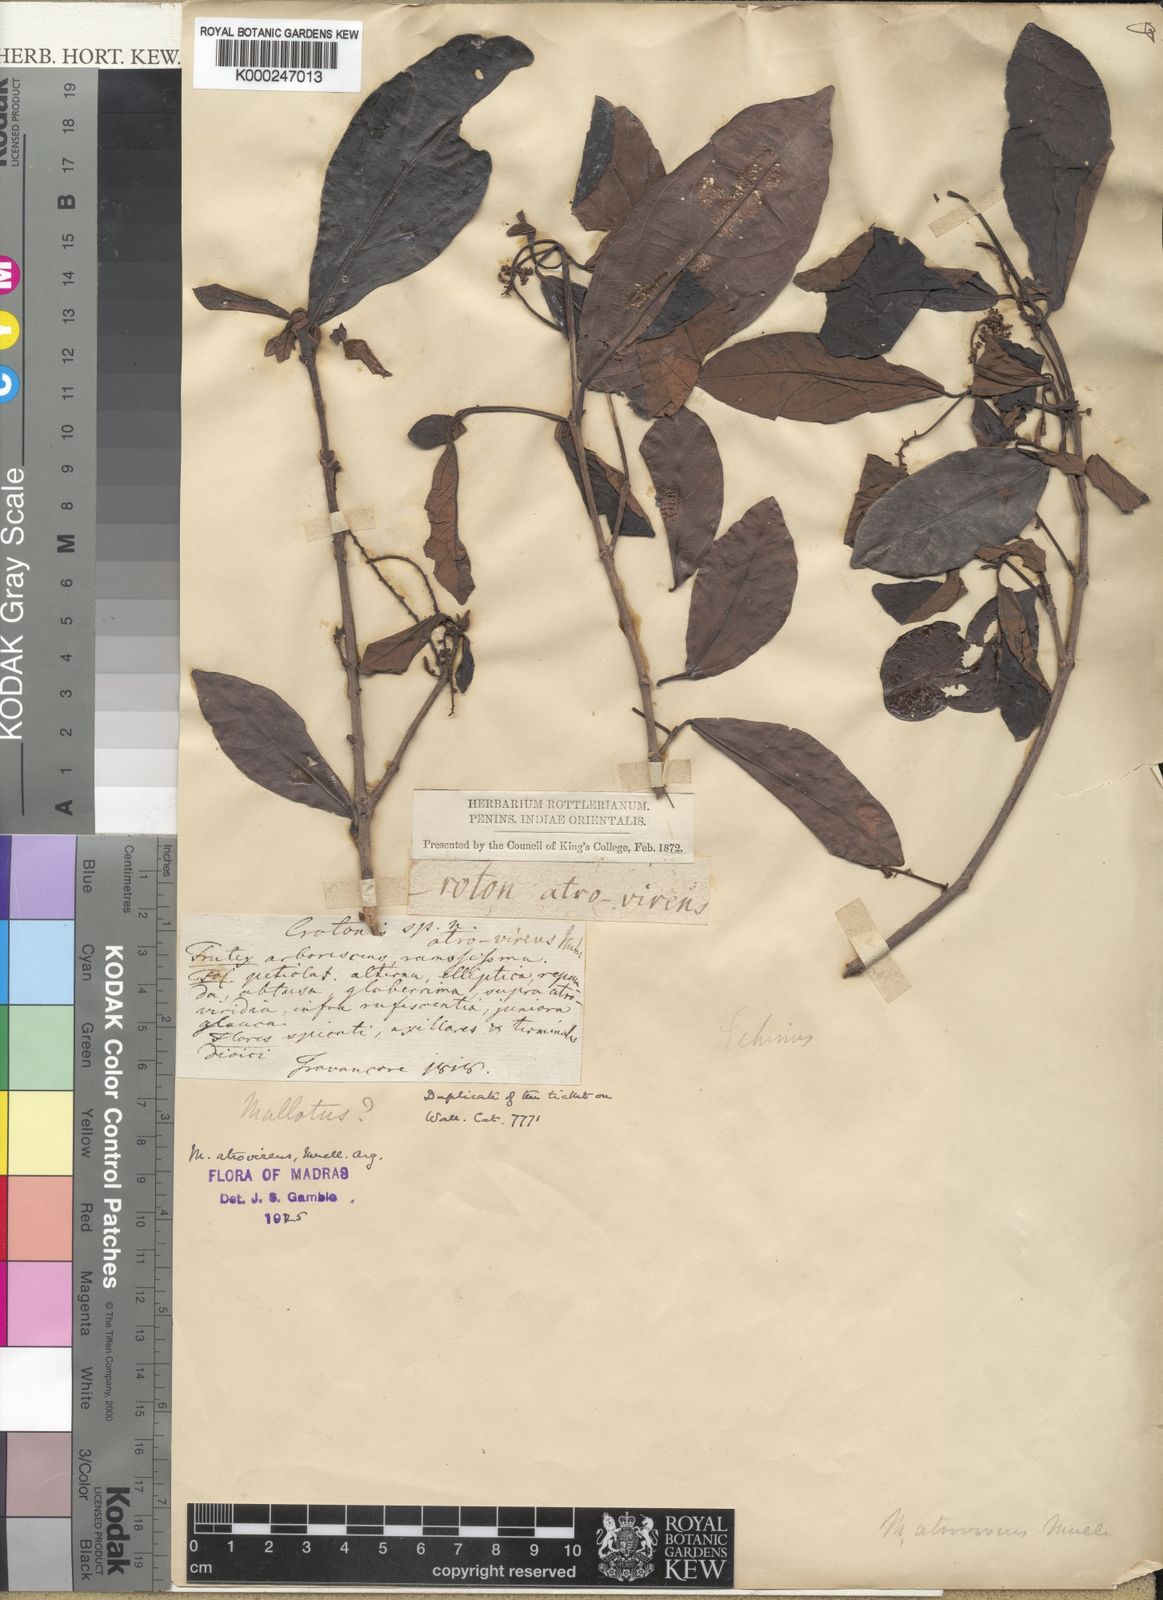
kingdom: Plantae
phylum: Tracheophyta
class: Magnoliopsida
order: Malpighiales
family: Euphorbiaceae
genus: Mallotus
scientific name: Mallotus
